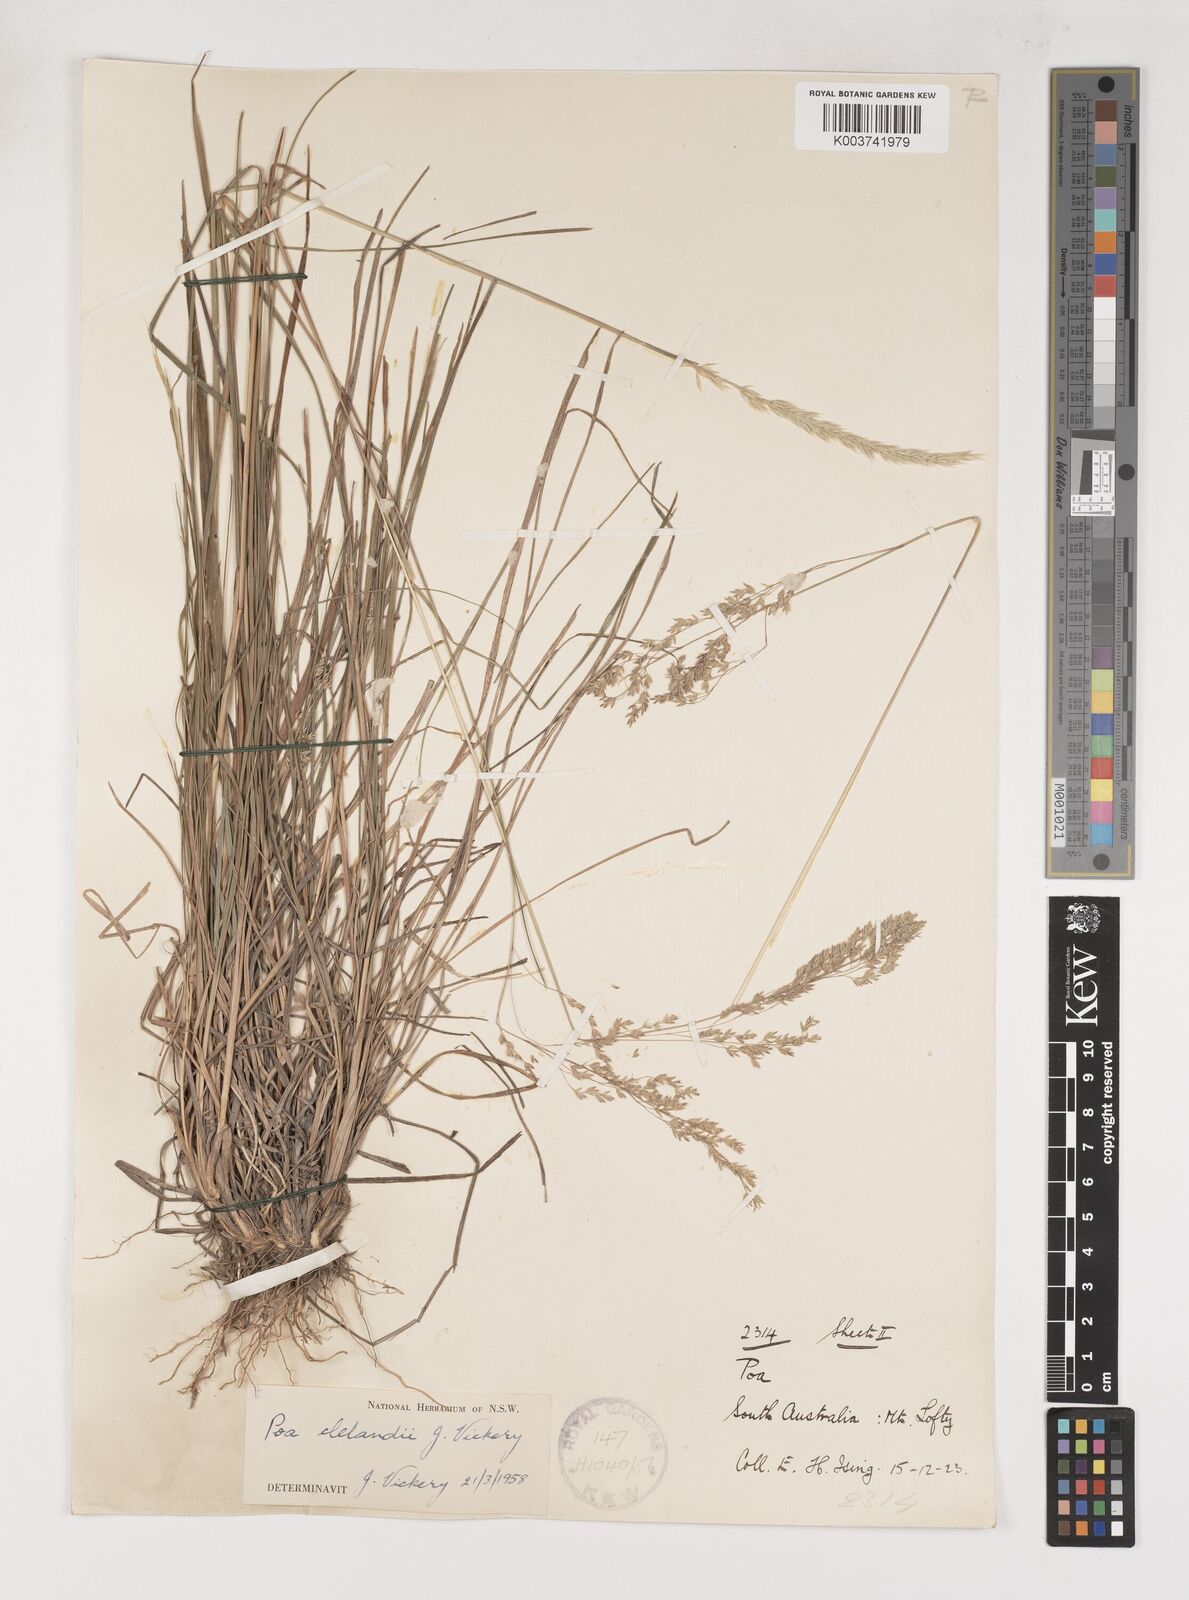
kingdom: Plantae
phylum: Tracheophyta
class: Liliopsida
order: Poales
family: Poaceae
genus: Poa
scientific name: Poa clelandii
